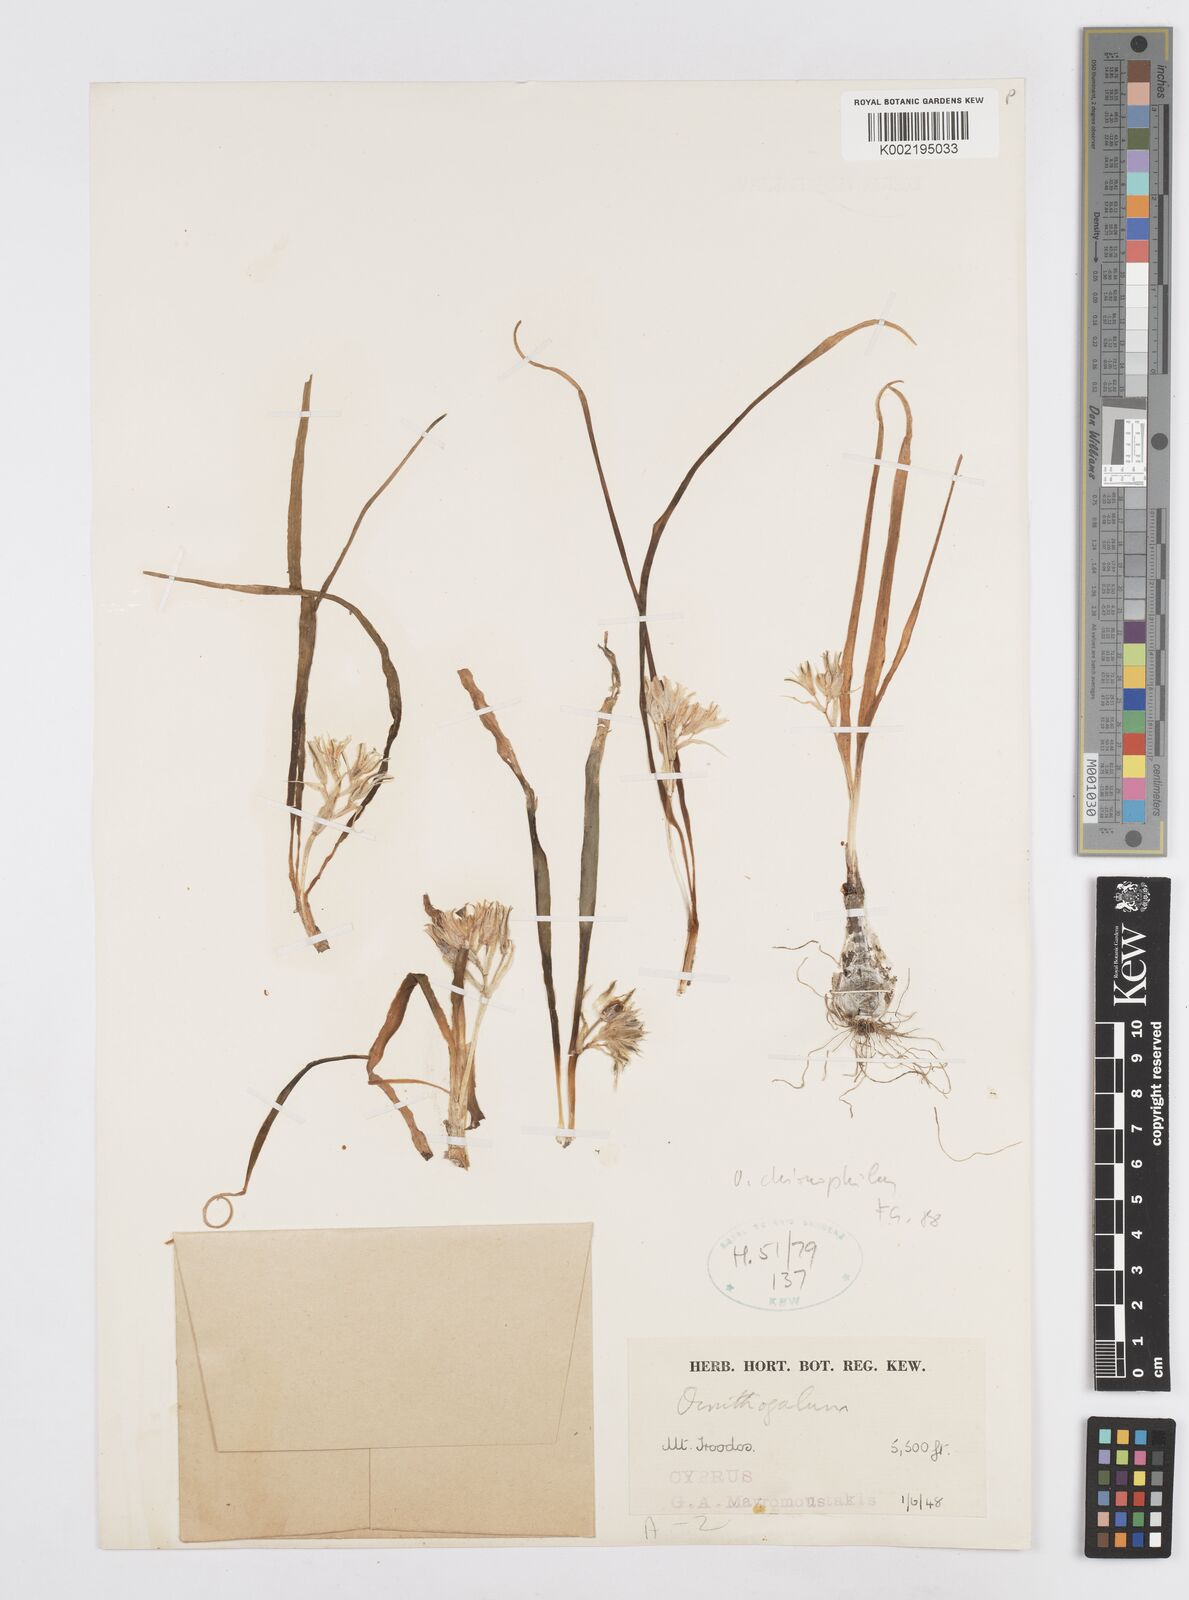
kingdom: Plantae
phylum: Tracheophyta
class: Liliopsida
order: Asparagales
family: Asparagaceae
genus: Ornithogalum
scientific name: Ornithogalum chionophilum
